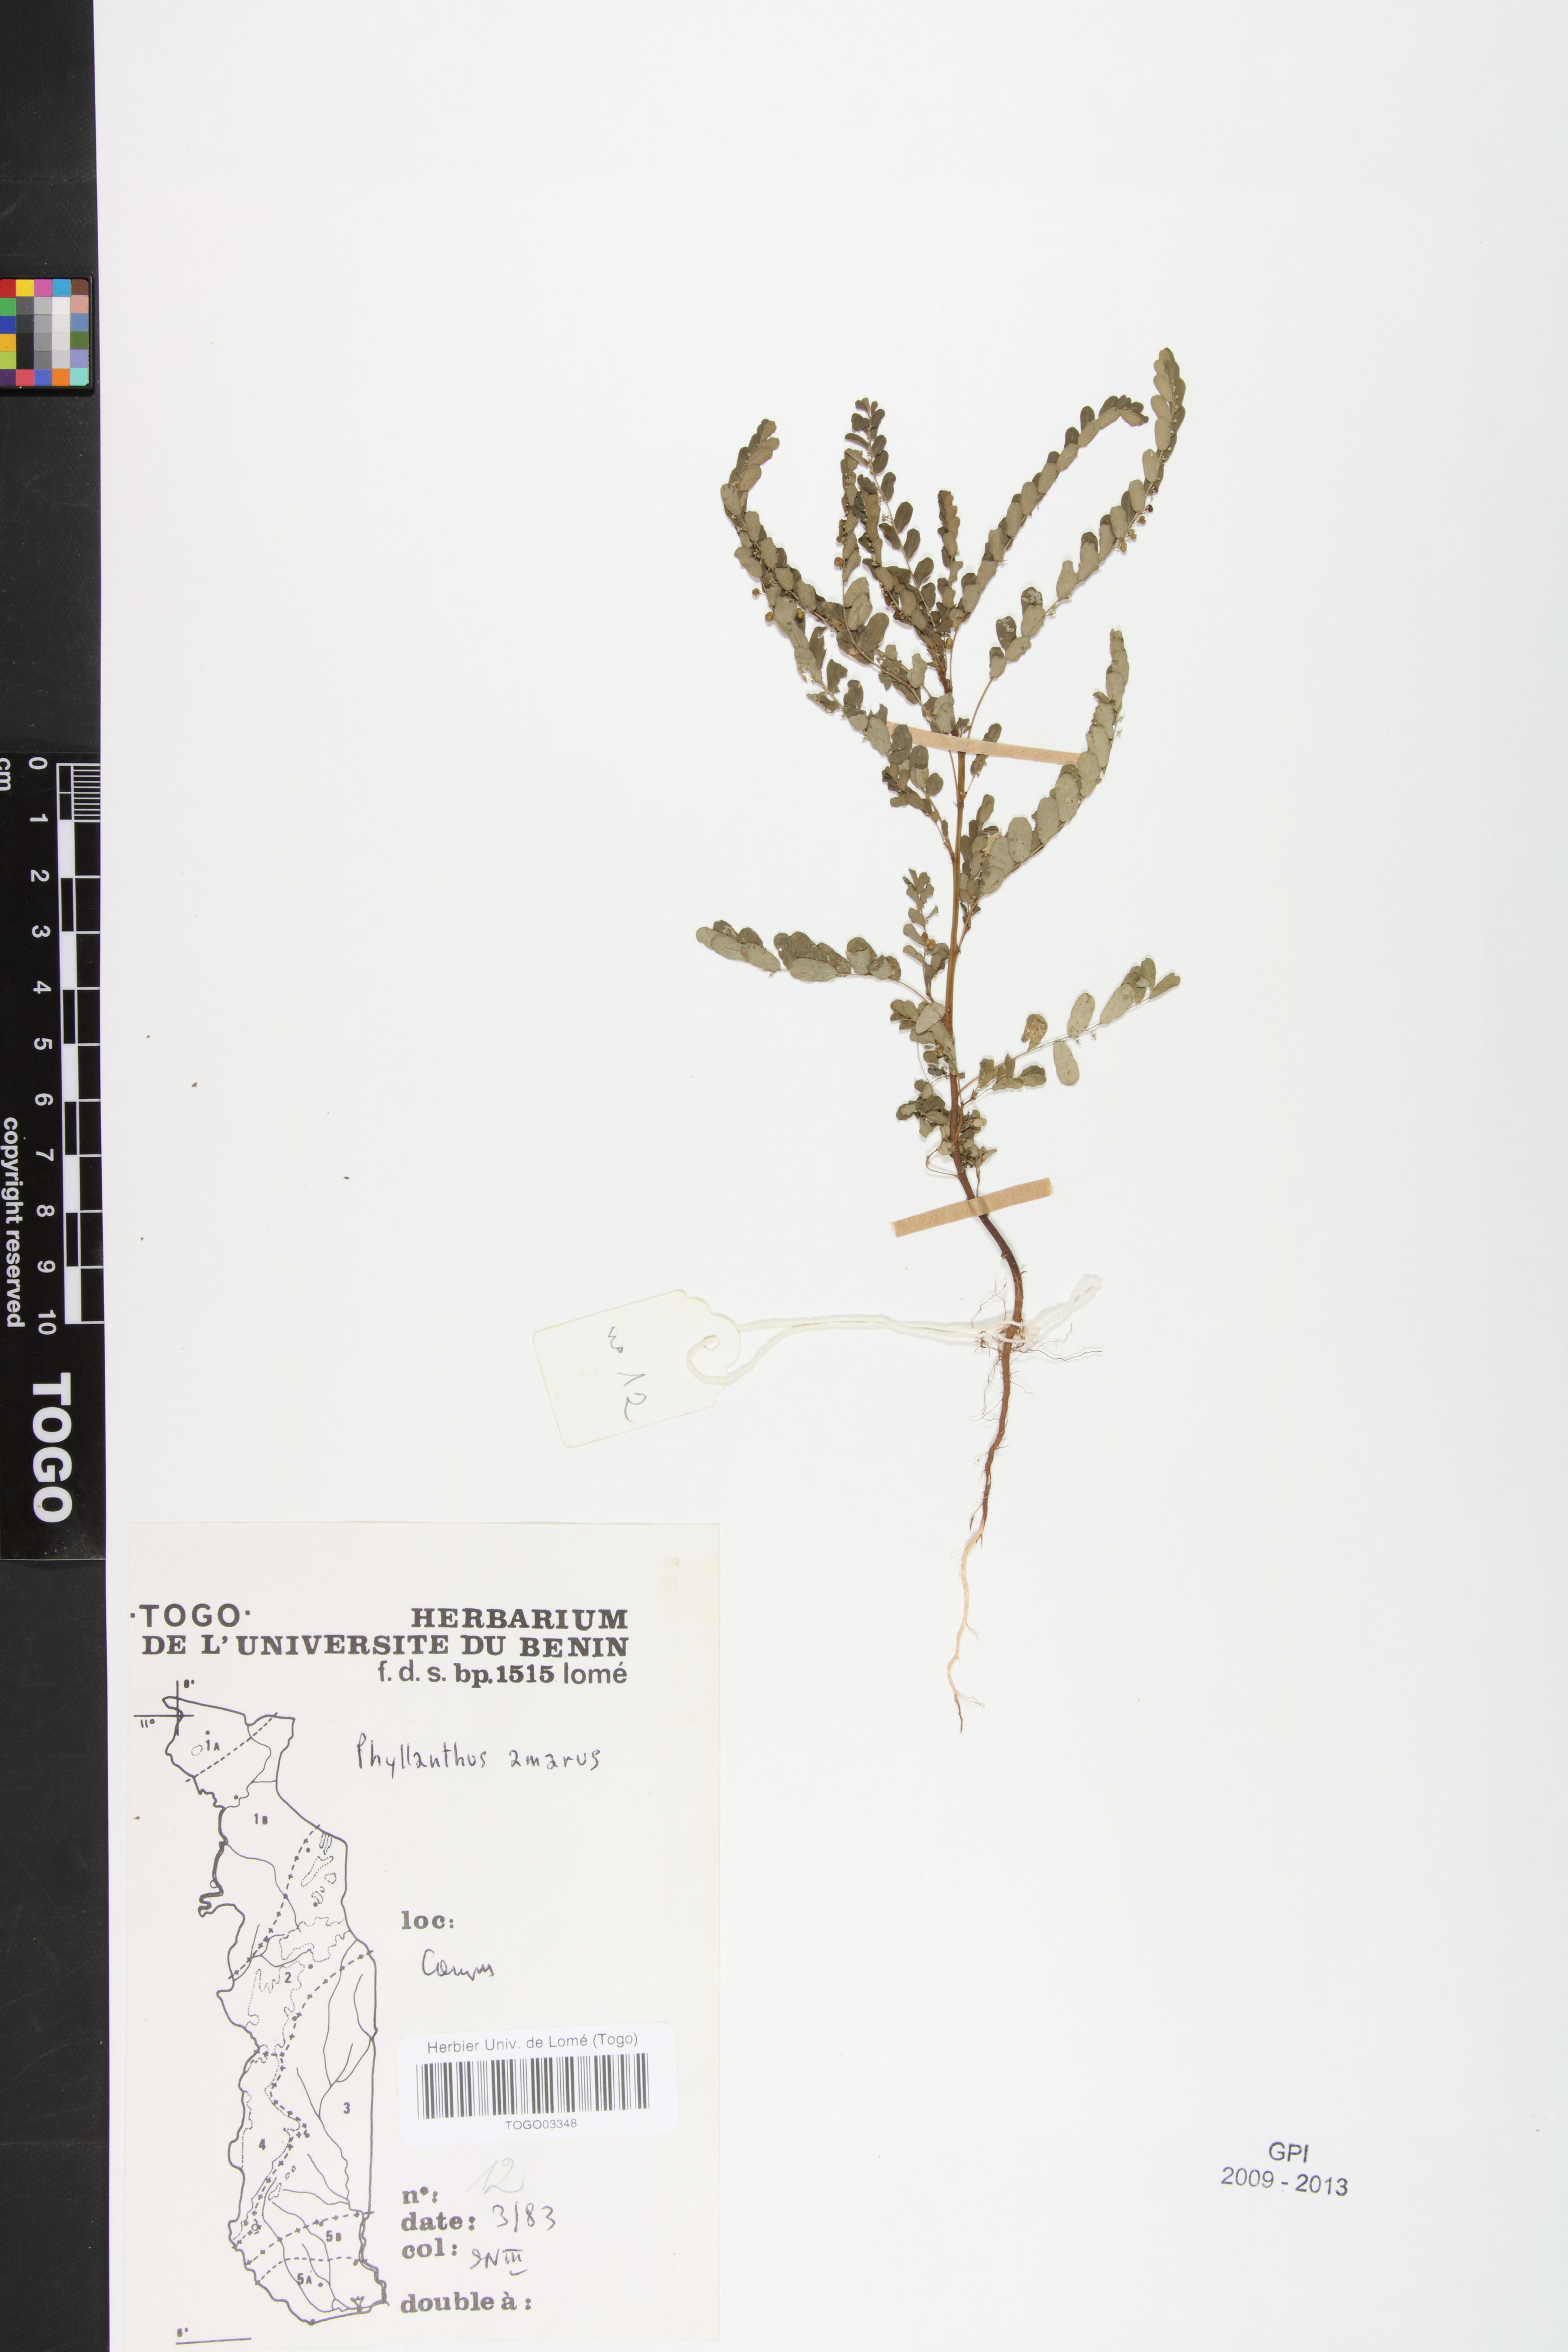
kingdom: Plantae
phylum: Tracheophyta
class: Magnoliopsida
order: Malpighiales
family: Phyllanthaceae
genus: Phyllanthus
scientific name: Phyllanthus amarus
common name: Carry me seed
